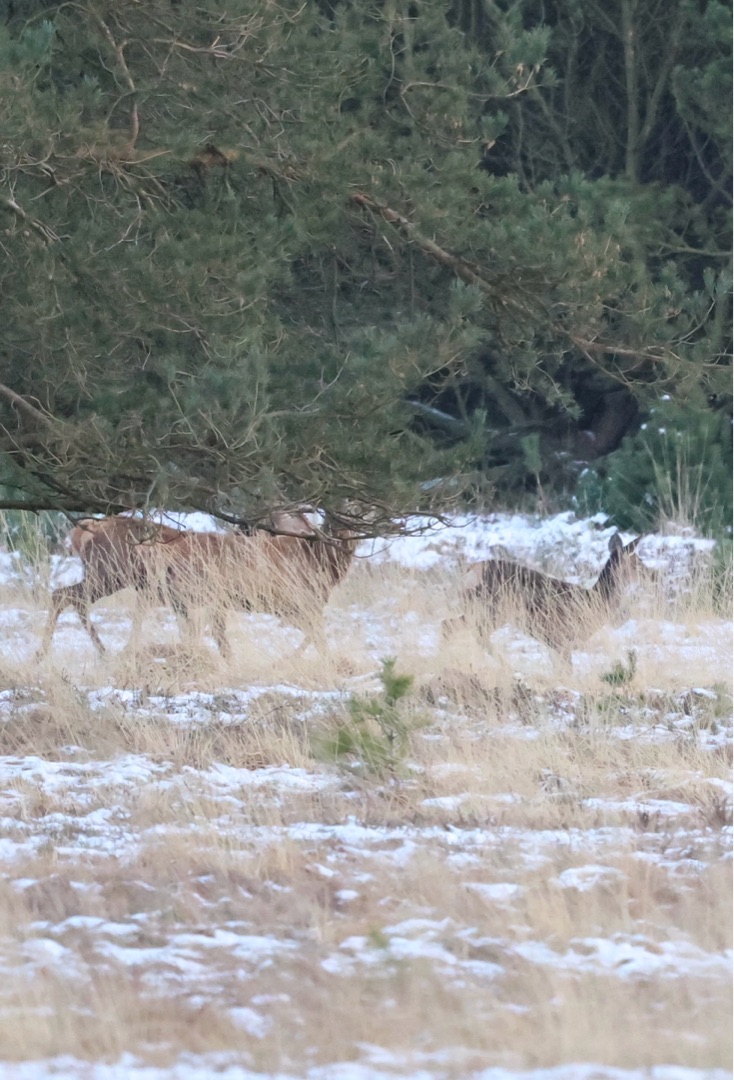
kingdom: Animalia
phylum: Chordata
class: Mammalia
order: Artiodactyla
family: Cervidae
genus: Cervus
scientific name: Cervus elaphus
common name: Krondyr
